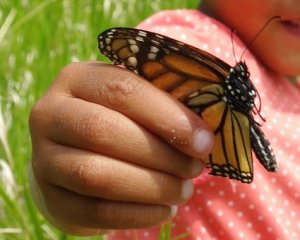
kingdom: Animalia
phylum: Arthropoda
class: Insecta
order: Lepidoptera
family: Nymphalidae
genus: Danaus
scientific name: Danaus plexippus
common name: Monarch
